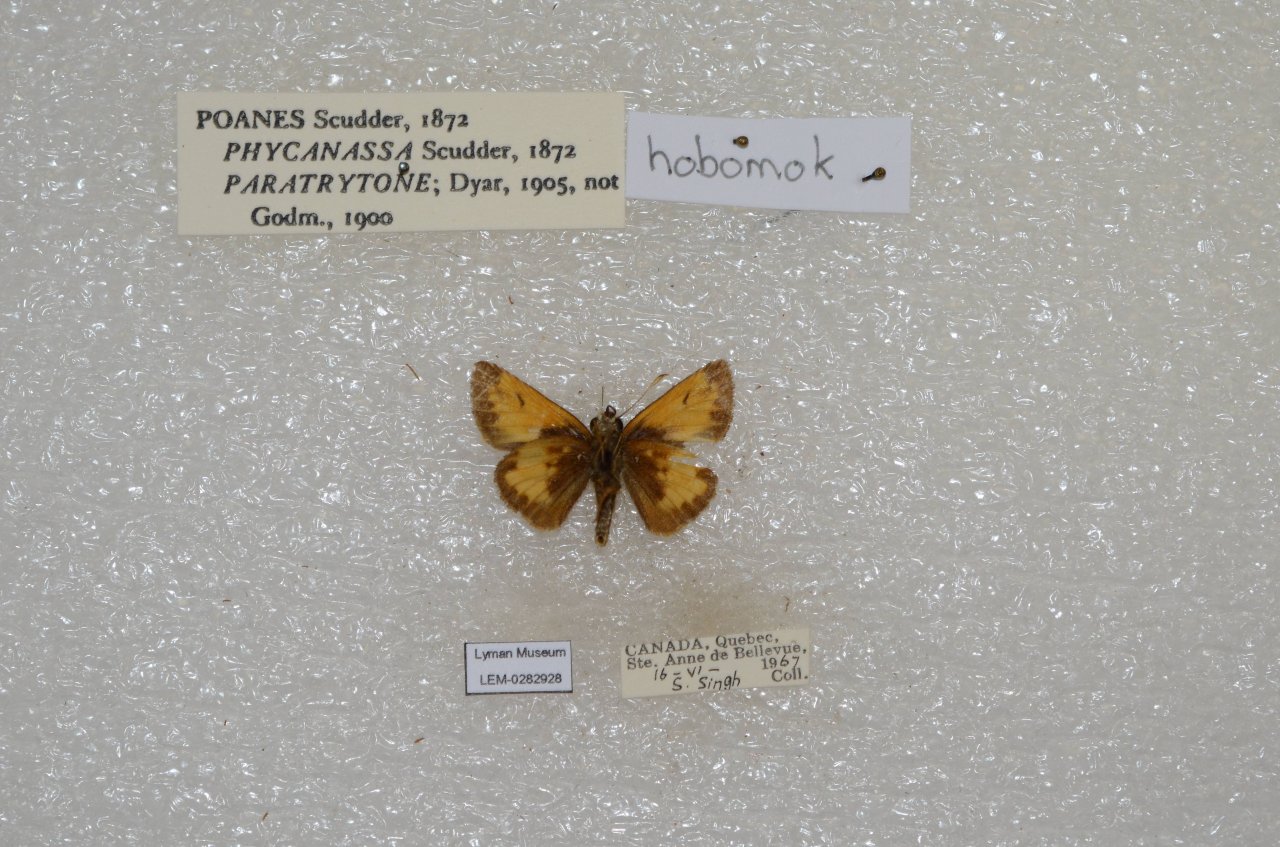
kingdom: Animalia
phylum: Arthropoda
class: Insecta
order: Lepidoptera
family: Hesperiidae
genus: Lon
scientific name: Lon hobomok
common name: Hobomok Skipper
